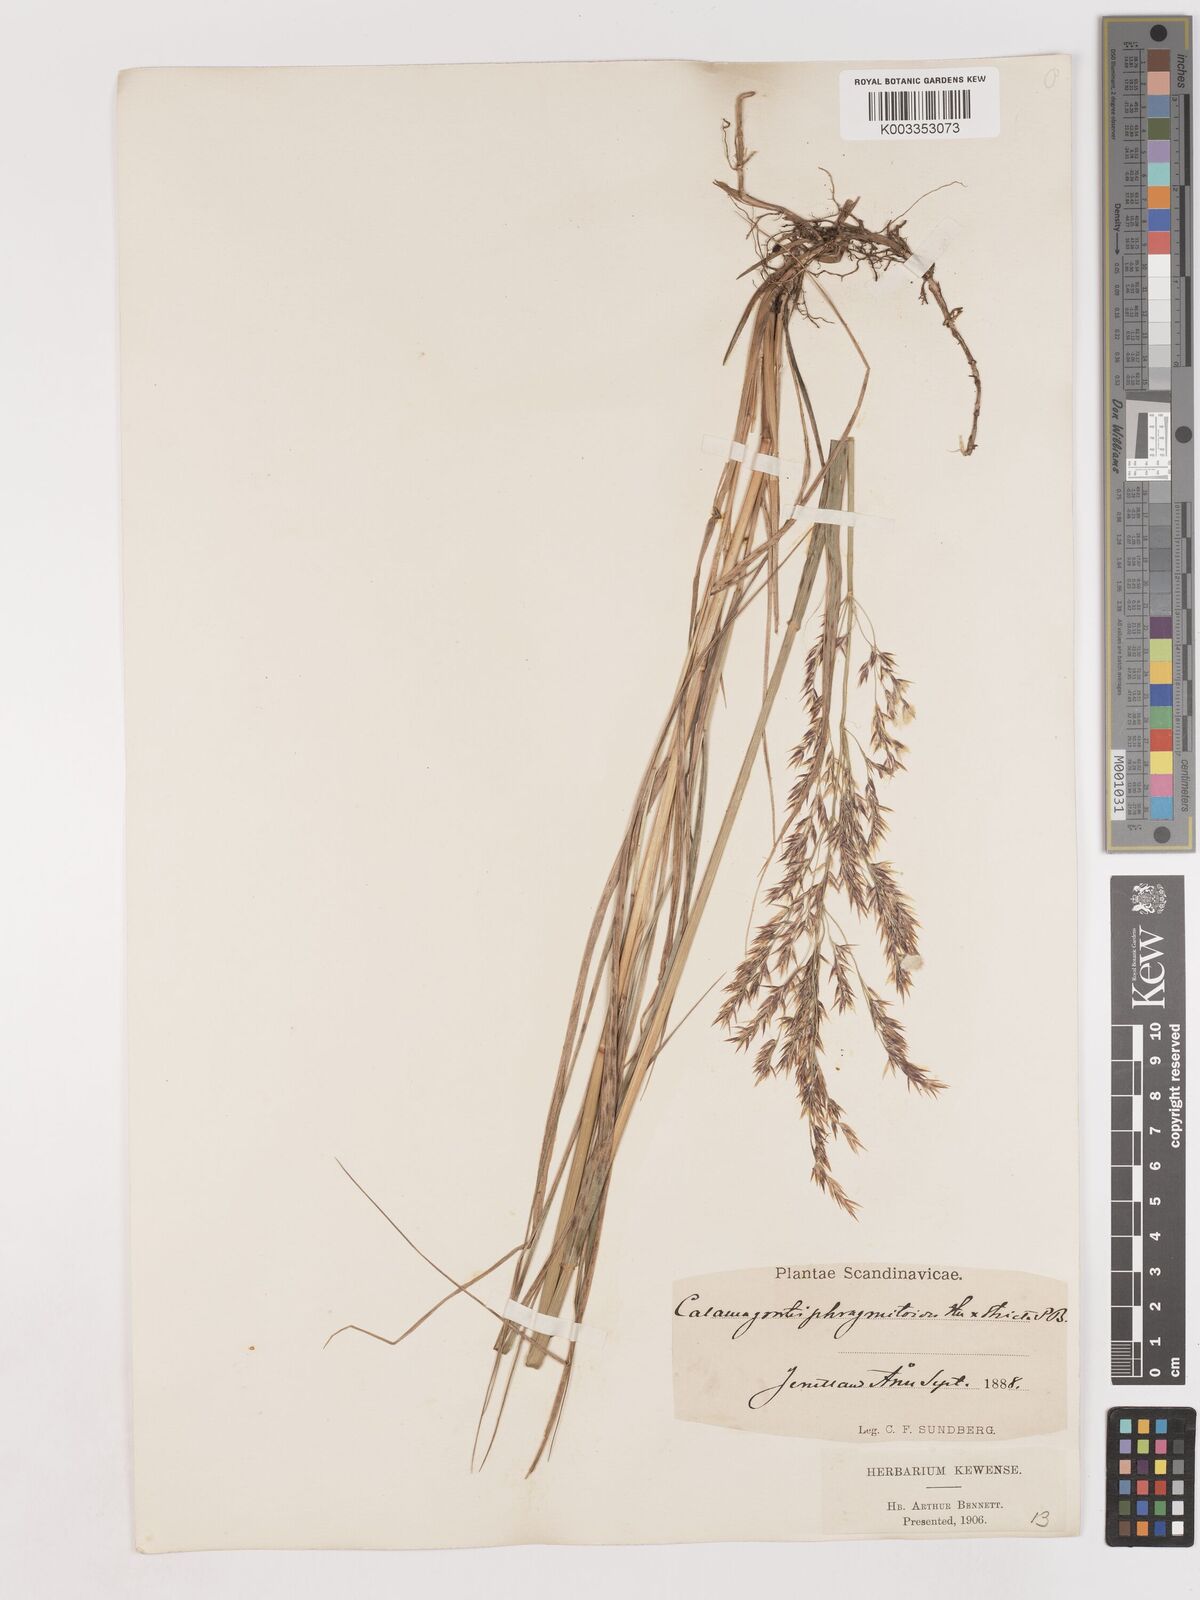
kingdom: Plantae
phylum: Tracheophyta
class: Liliopsida
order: Poales
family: Poaceae
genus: Calamagrostis
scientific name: Calamagrostis epigejos
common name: Wood small-reed
